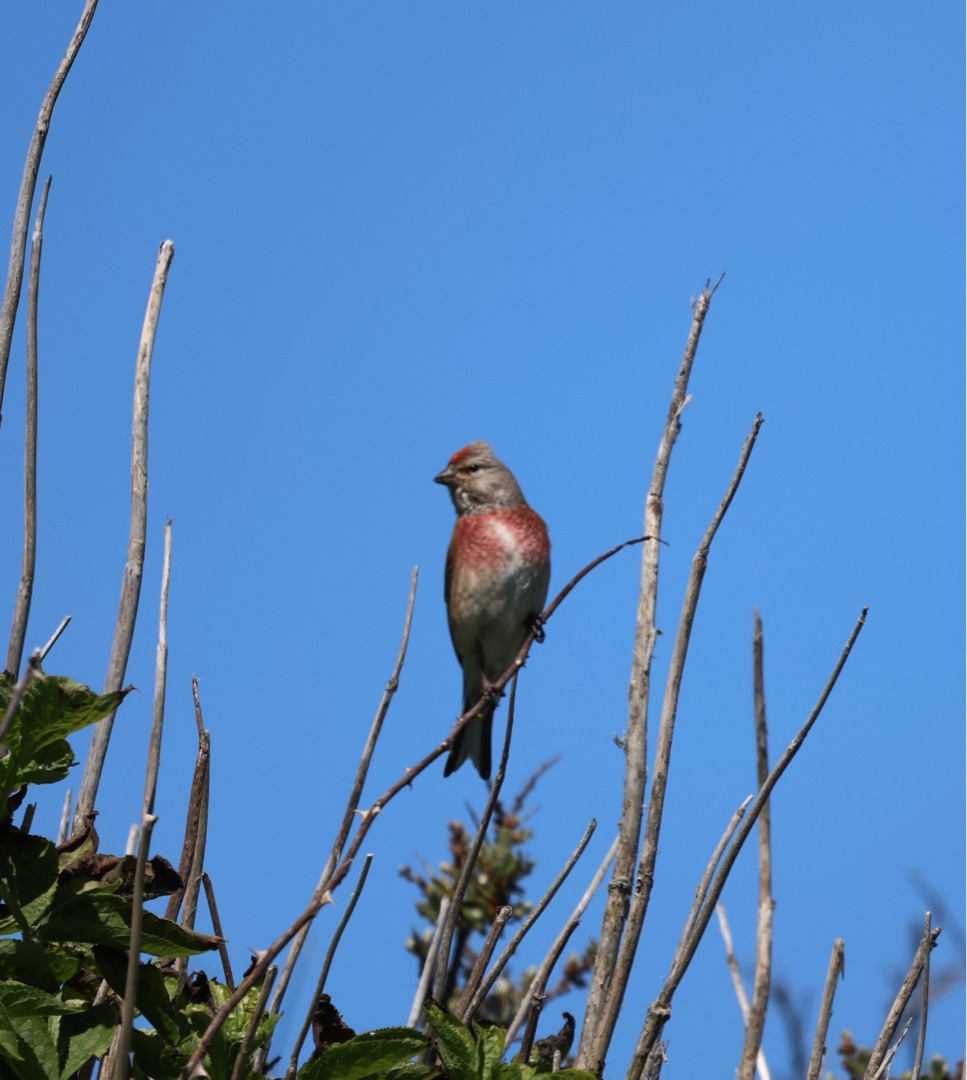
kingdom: Animalia
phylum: Chordata
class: Aves
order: Passeriformes
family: Fringillidae
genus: Linaria
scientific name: Linaria cannabina
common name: Tornirisk
